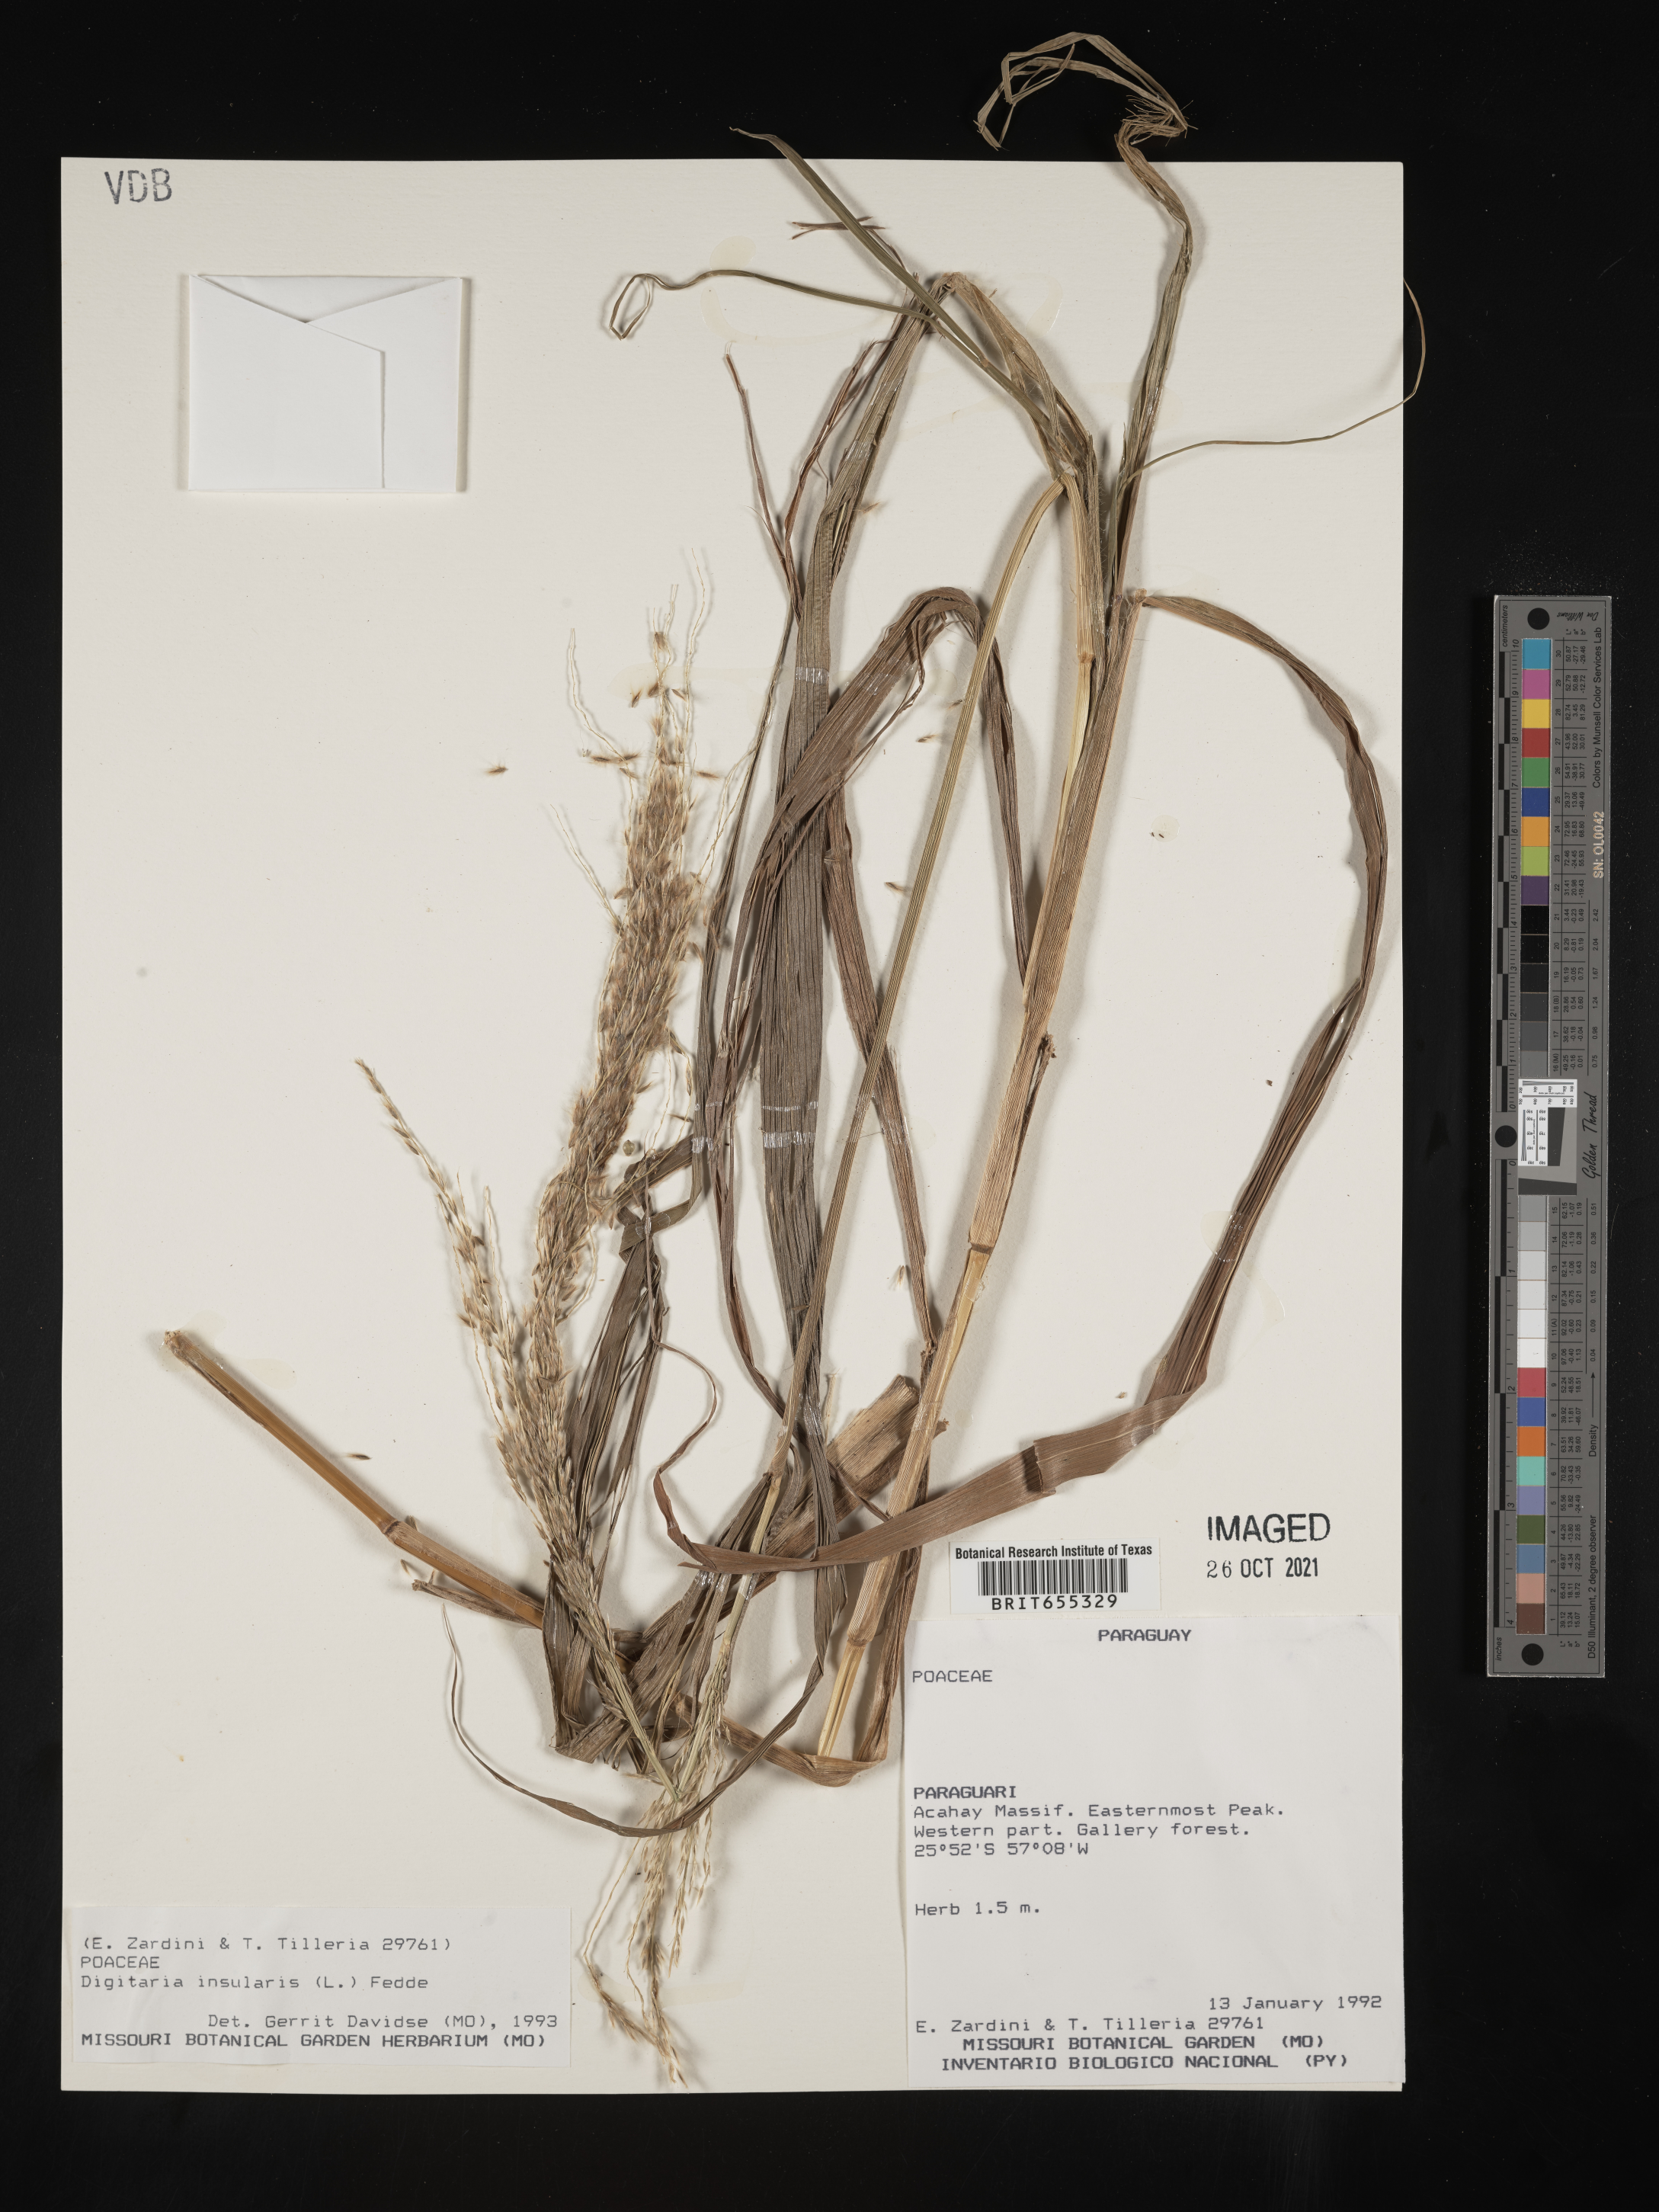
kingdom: Plantae
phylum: Tracheophyta
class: Liliopsida
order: Poales
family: Poaceae
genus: Digitaria
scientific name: Digitaria
